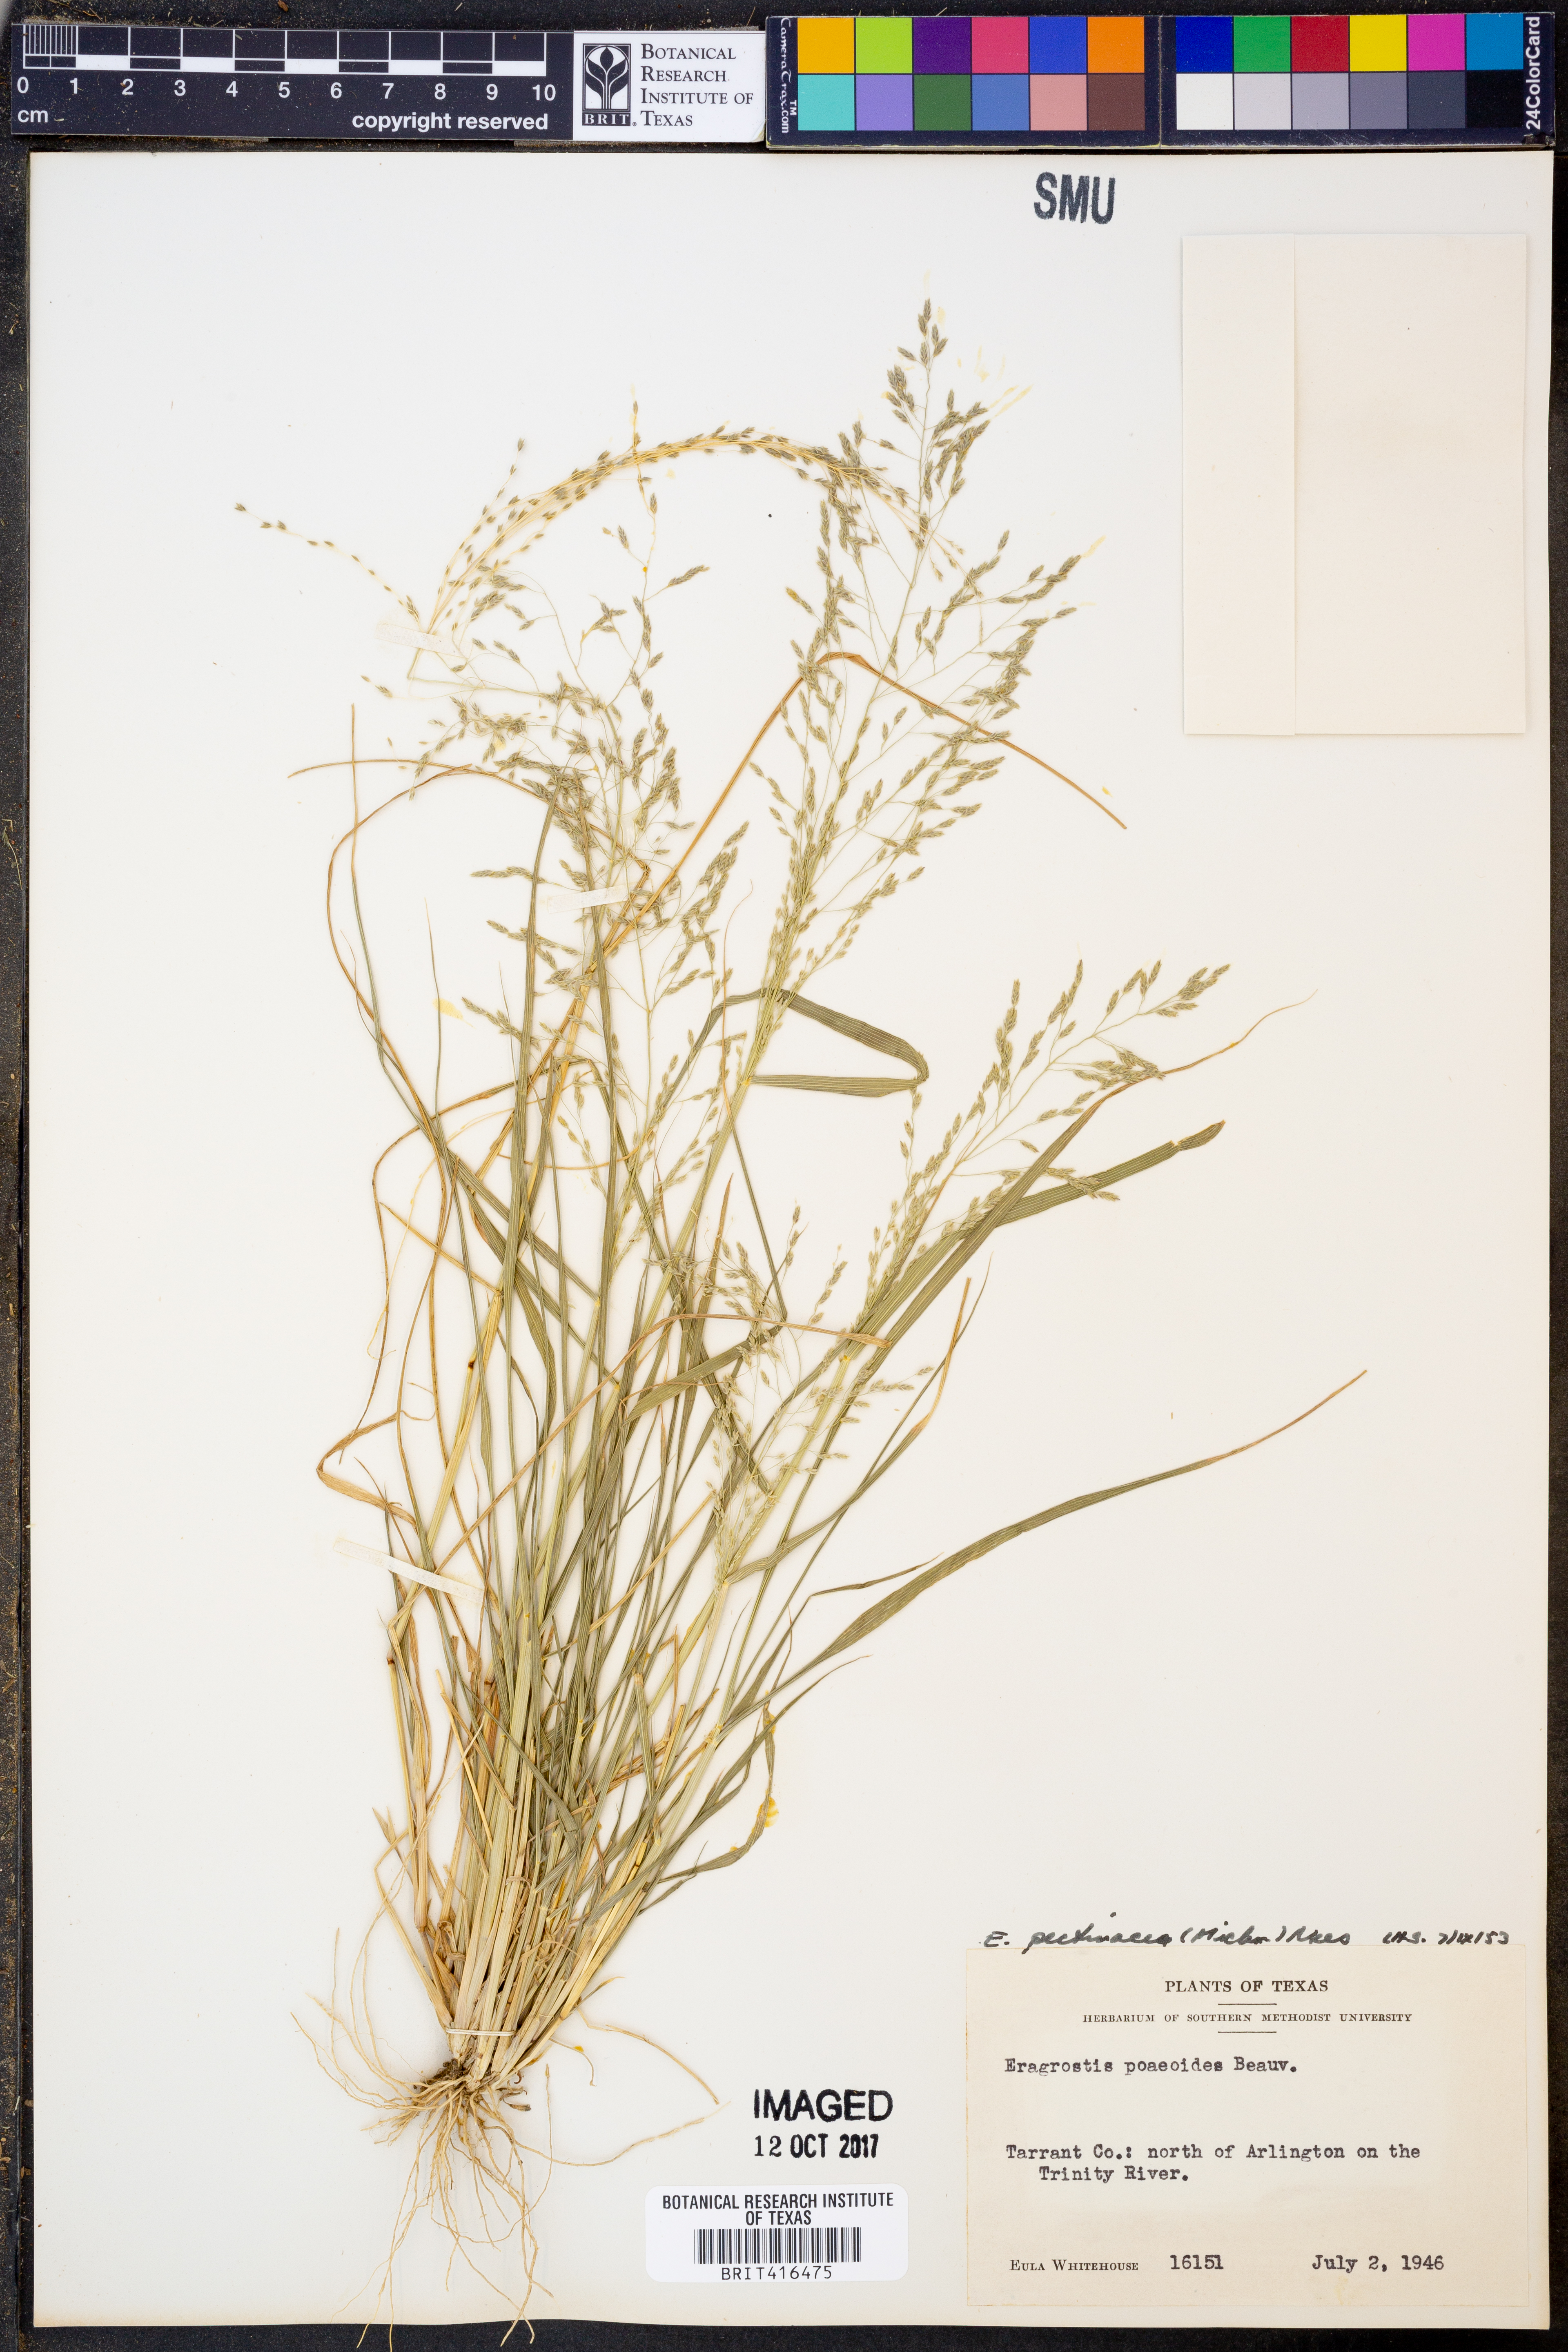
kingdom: Plantae
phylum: Tracheophyta
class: Liliopsida
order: Poales
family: Poaceae
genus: Eragrostis
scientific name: Eragrostis pectinacea
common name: Tufted lovegrass
